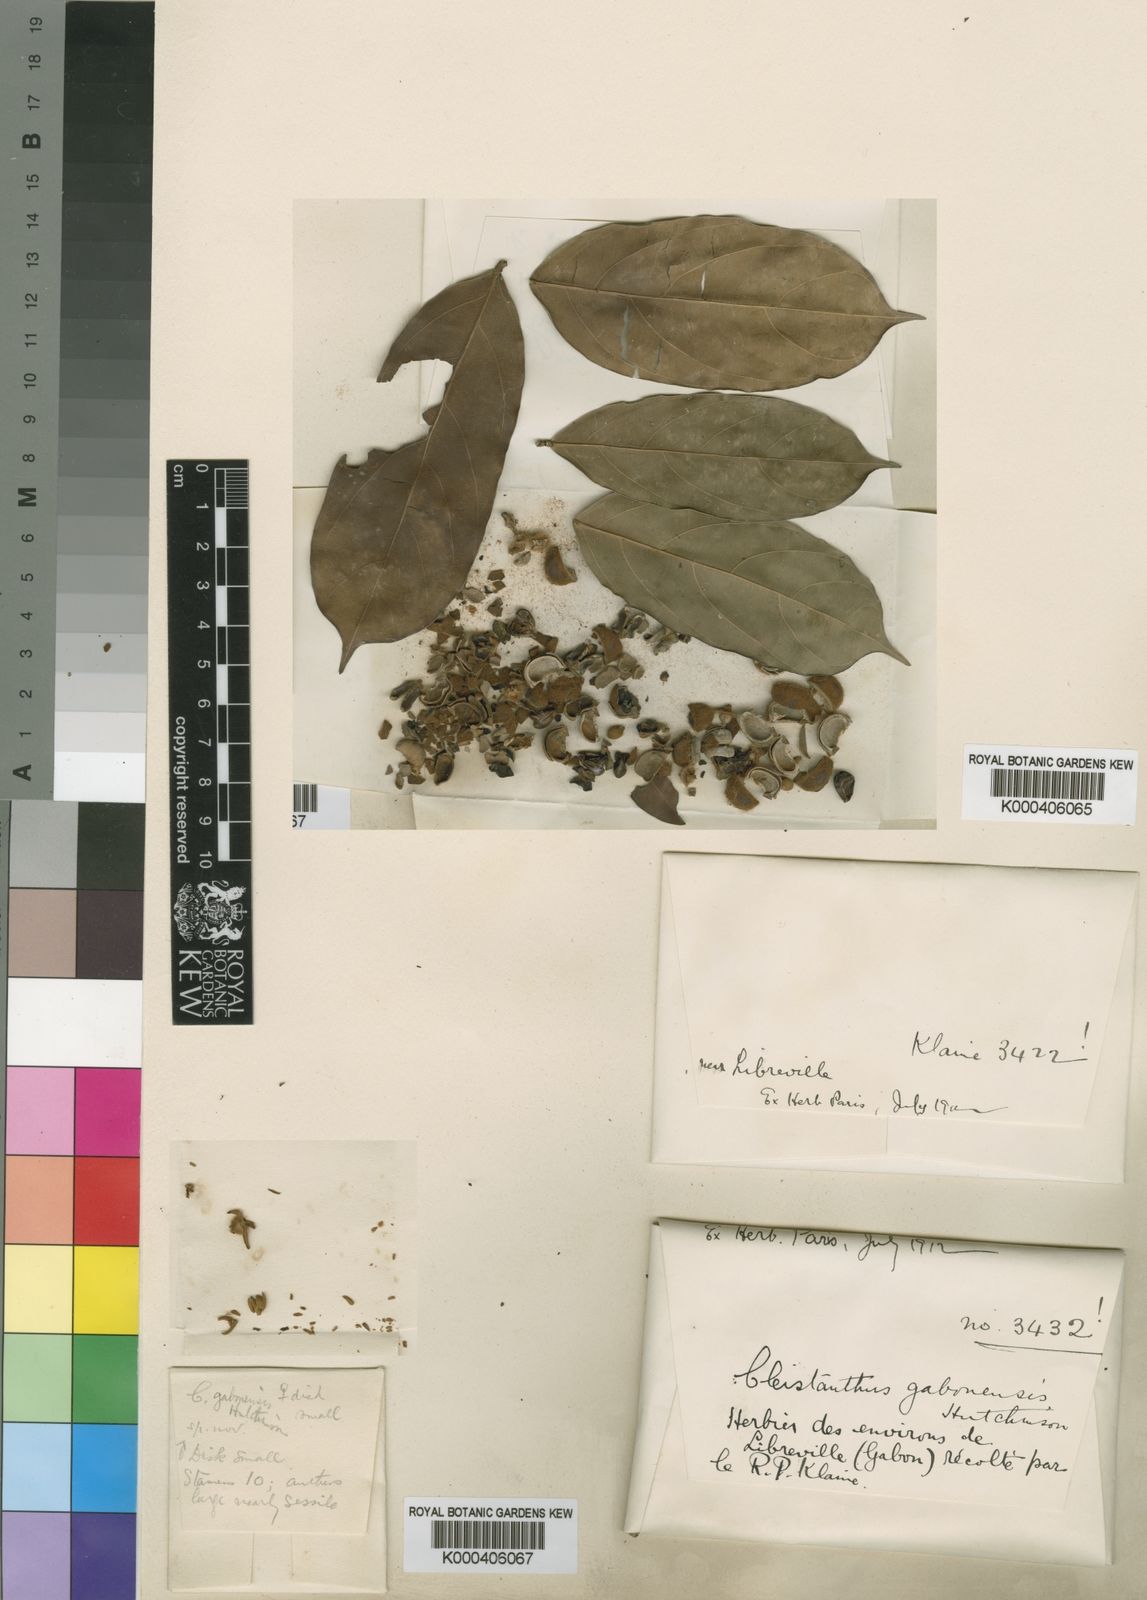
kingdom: Plantae
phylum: Tracheophyta
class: Magnoliopsida
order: Malpighiales
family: Phyllanthaceae
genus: Cleistanthus
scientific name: Cleistanthus gabonensis
